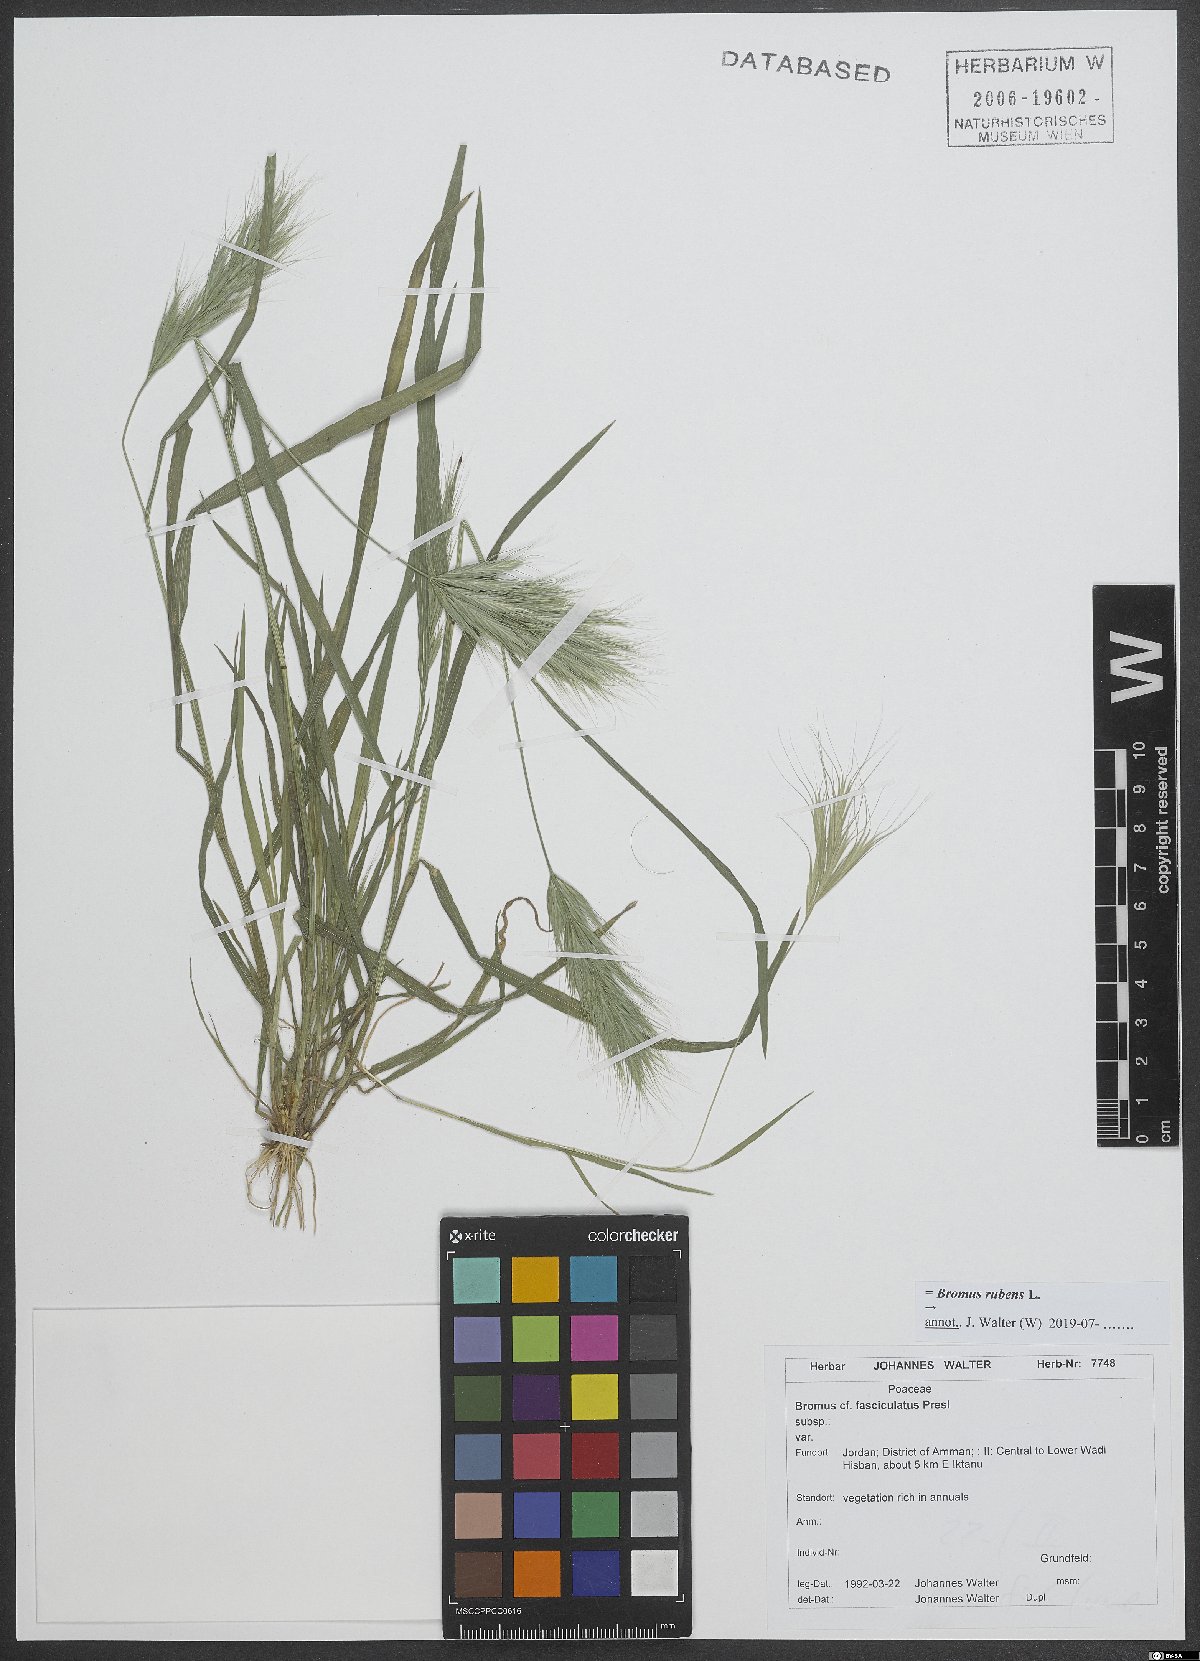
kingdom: Plantae
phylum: Tracheophyta
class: Liliopsida
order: Poales
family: Poaceae
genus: Bromus
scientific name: Bromus rubens
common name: Red brome
